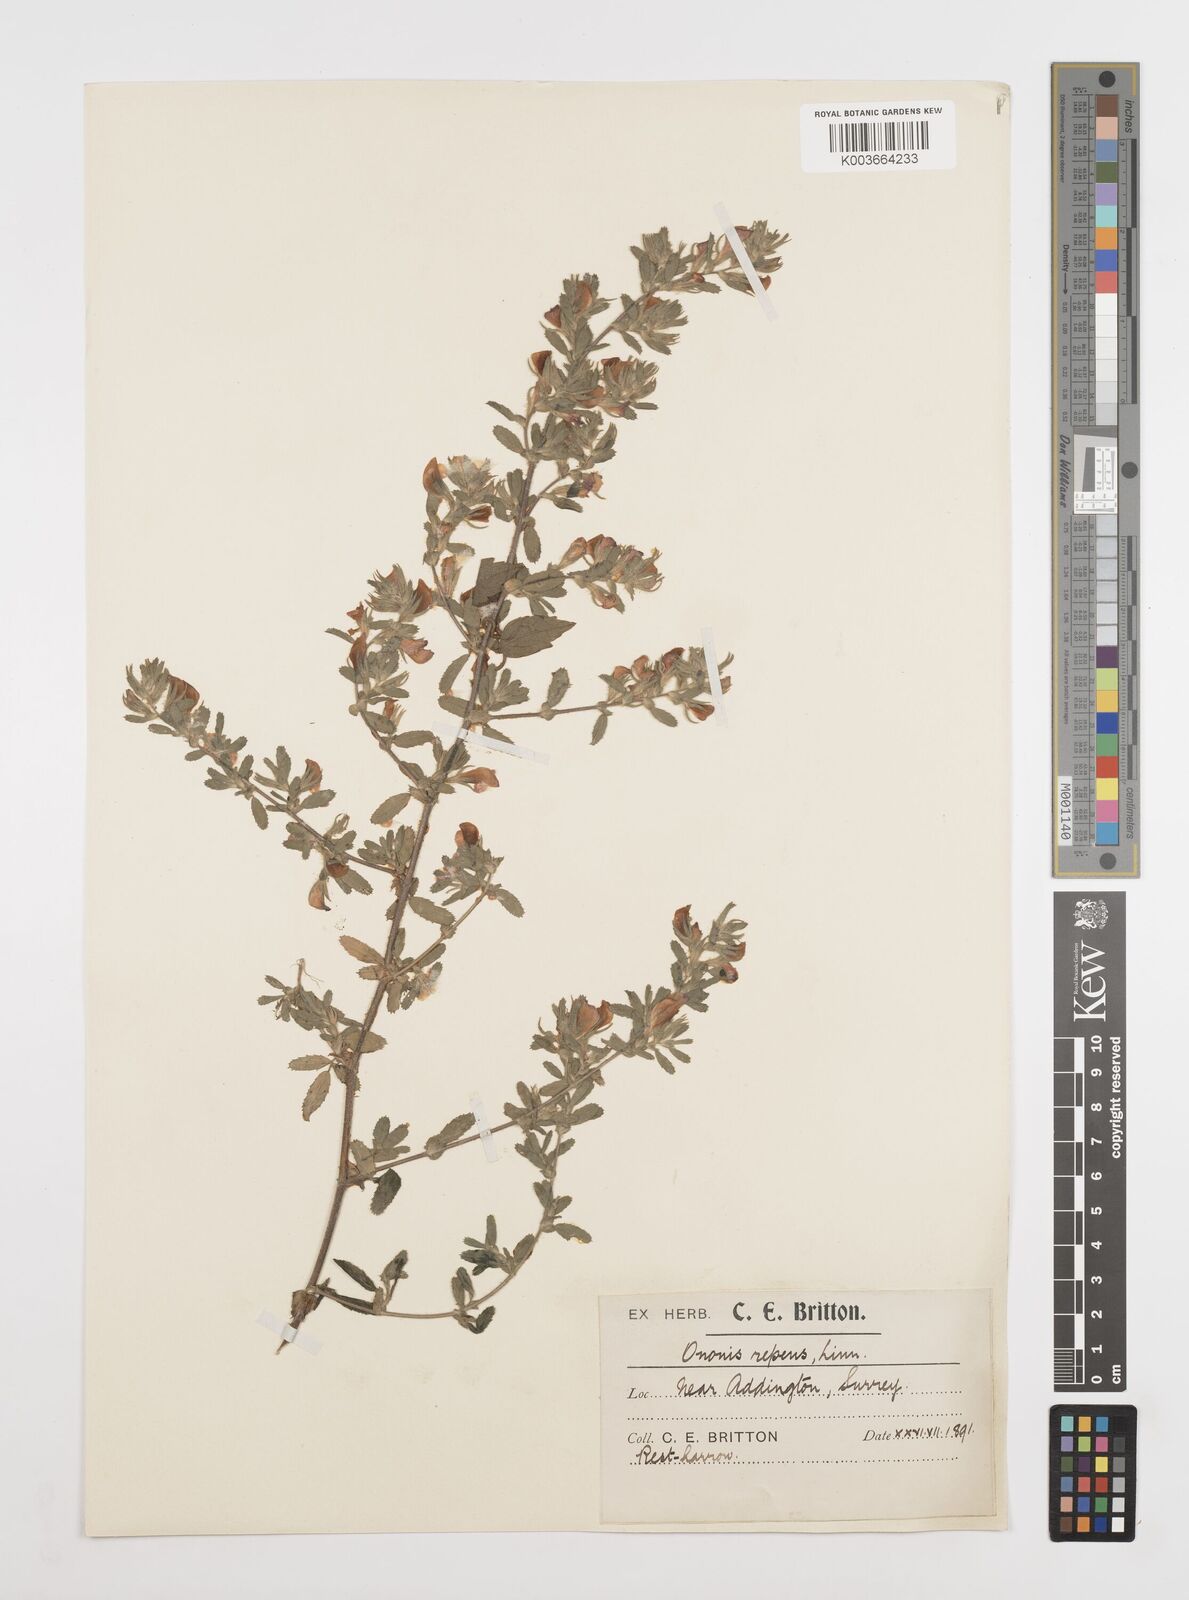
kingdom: Plantae
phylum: Tracheophyta
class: Magnoliopsida
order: Fabales
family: Fabaceae
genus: Ononis
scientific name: Ononis spinosa
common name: Spiny restharrow
